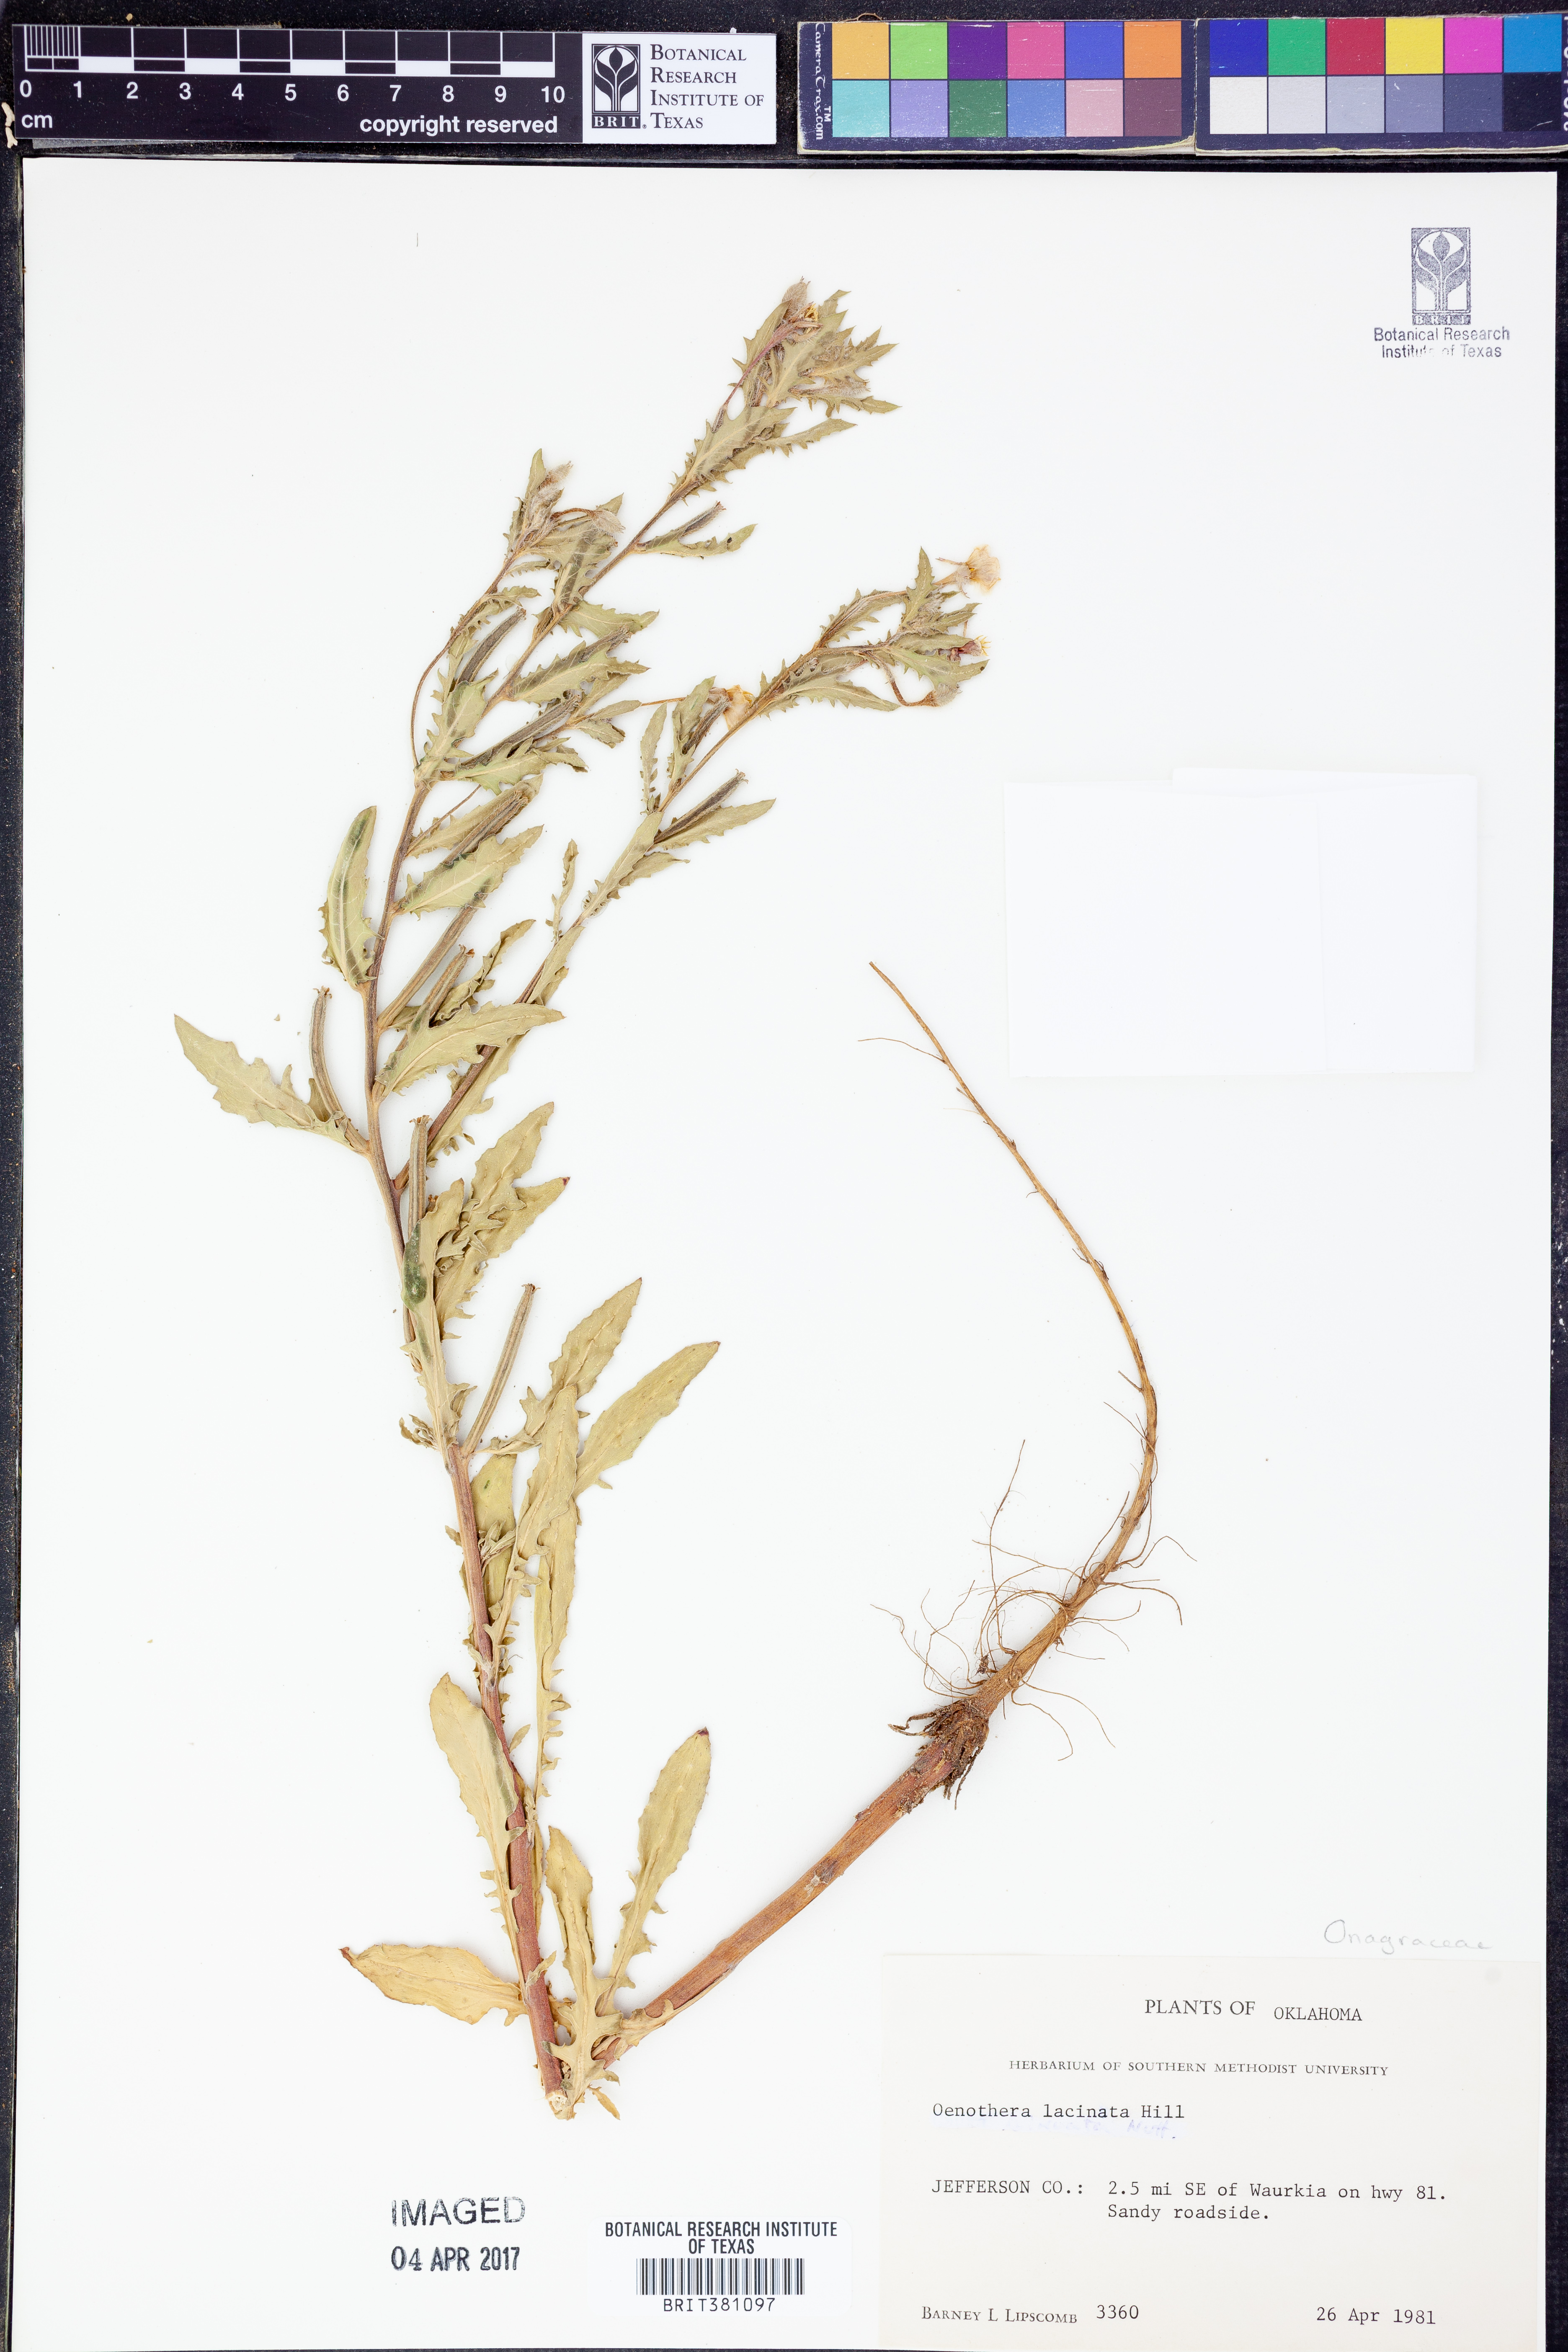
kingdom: Plantae
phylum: Tracheophyta
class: Magnoliopsida
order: Myrtales
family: Onagraceae
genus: Oenothera
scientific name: Oenothera laciniata
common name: Cut-leaved evening-primrose
